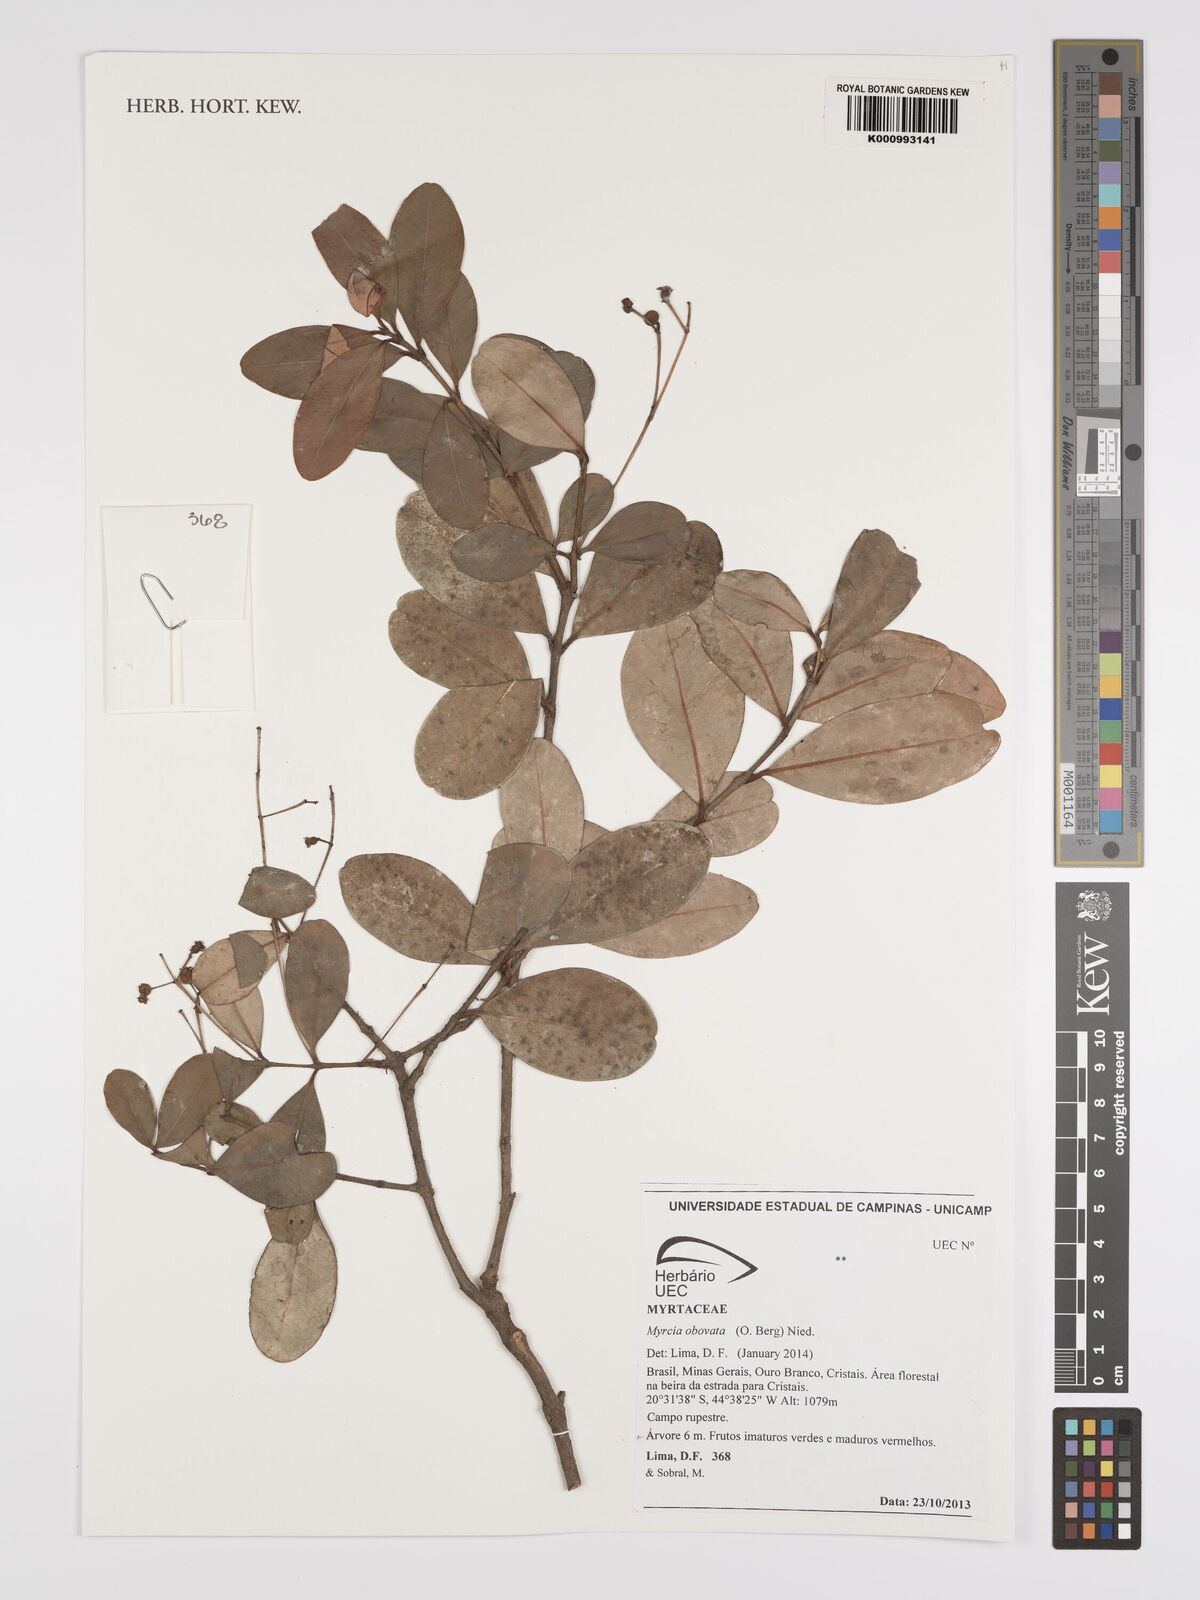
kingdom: Plantae
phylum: Tracheophyta
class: Magnoliopsida
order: Myrtales
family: Myrtaceae
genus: Myrcia
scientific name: Myrcia obovata
